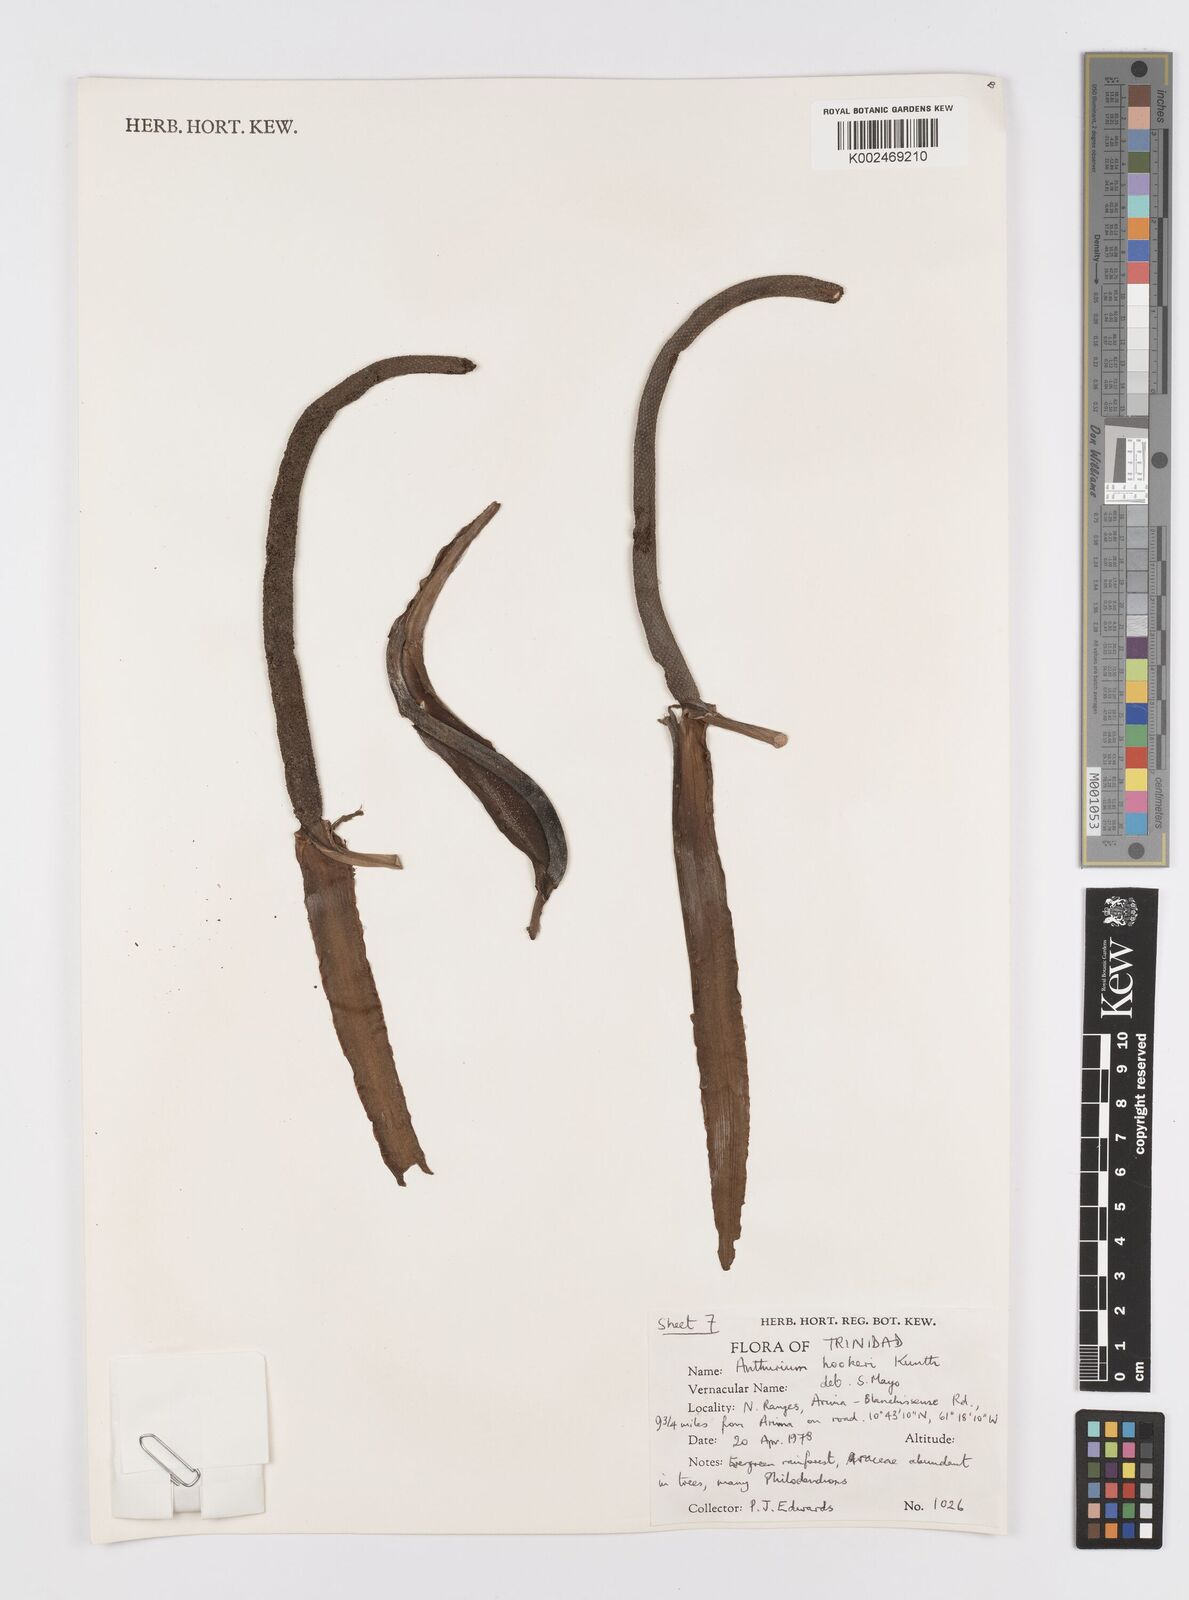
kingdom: Plantae
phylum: Tracheophyta
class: Liliopsida
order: Alismatales
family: Araceae
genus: Anthurium
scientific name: Anthurium hookeri
